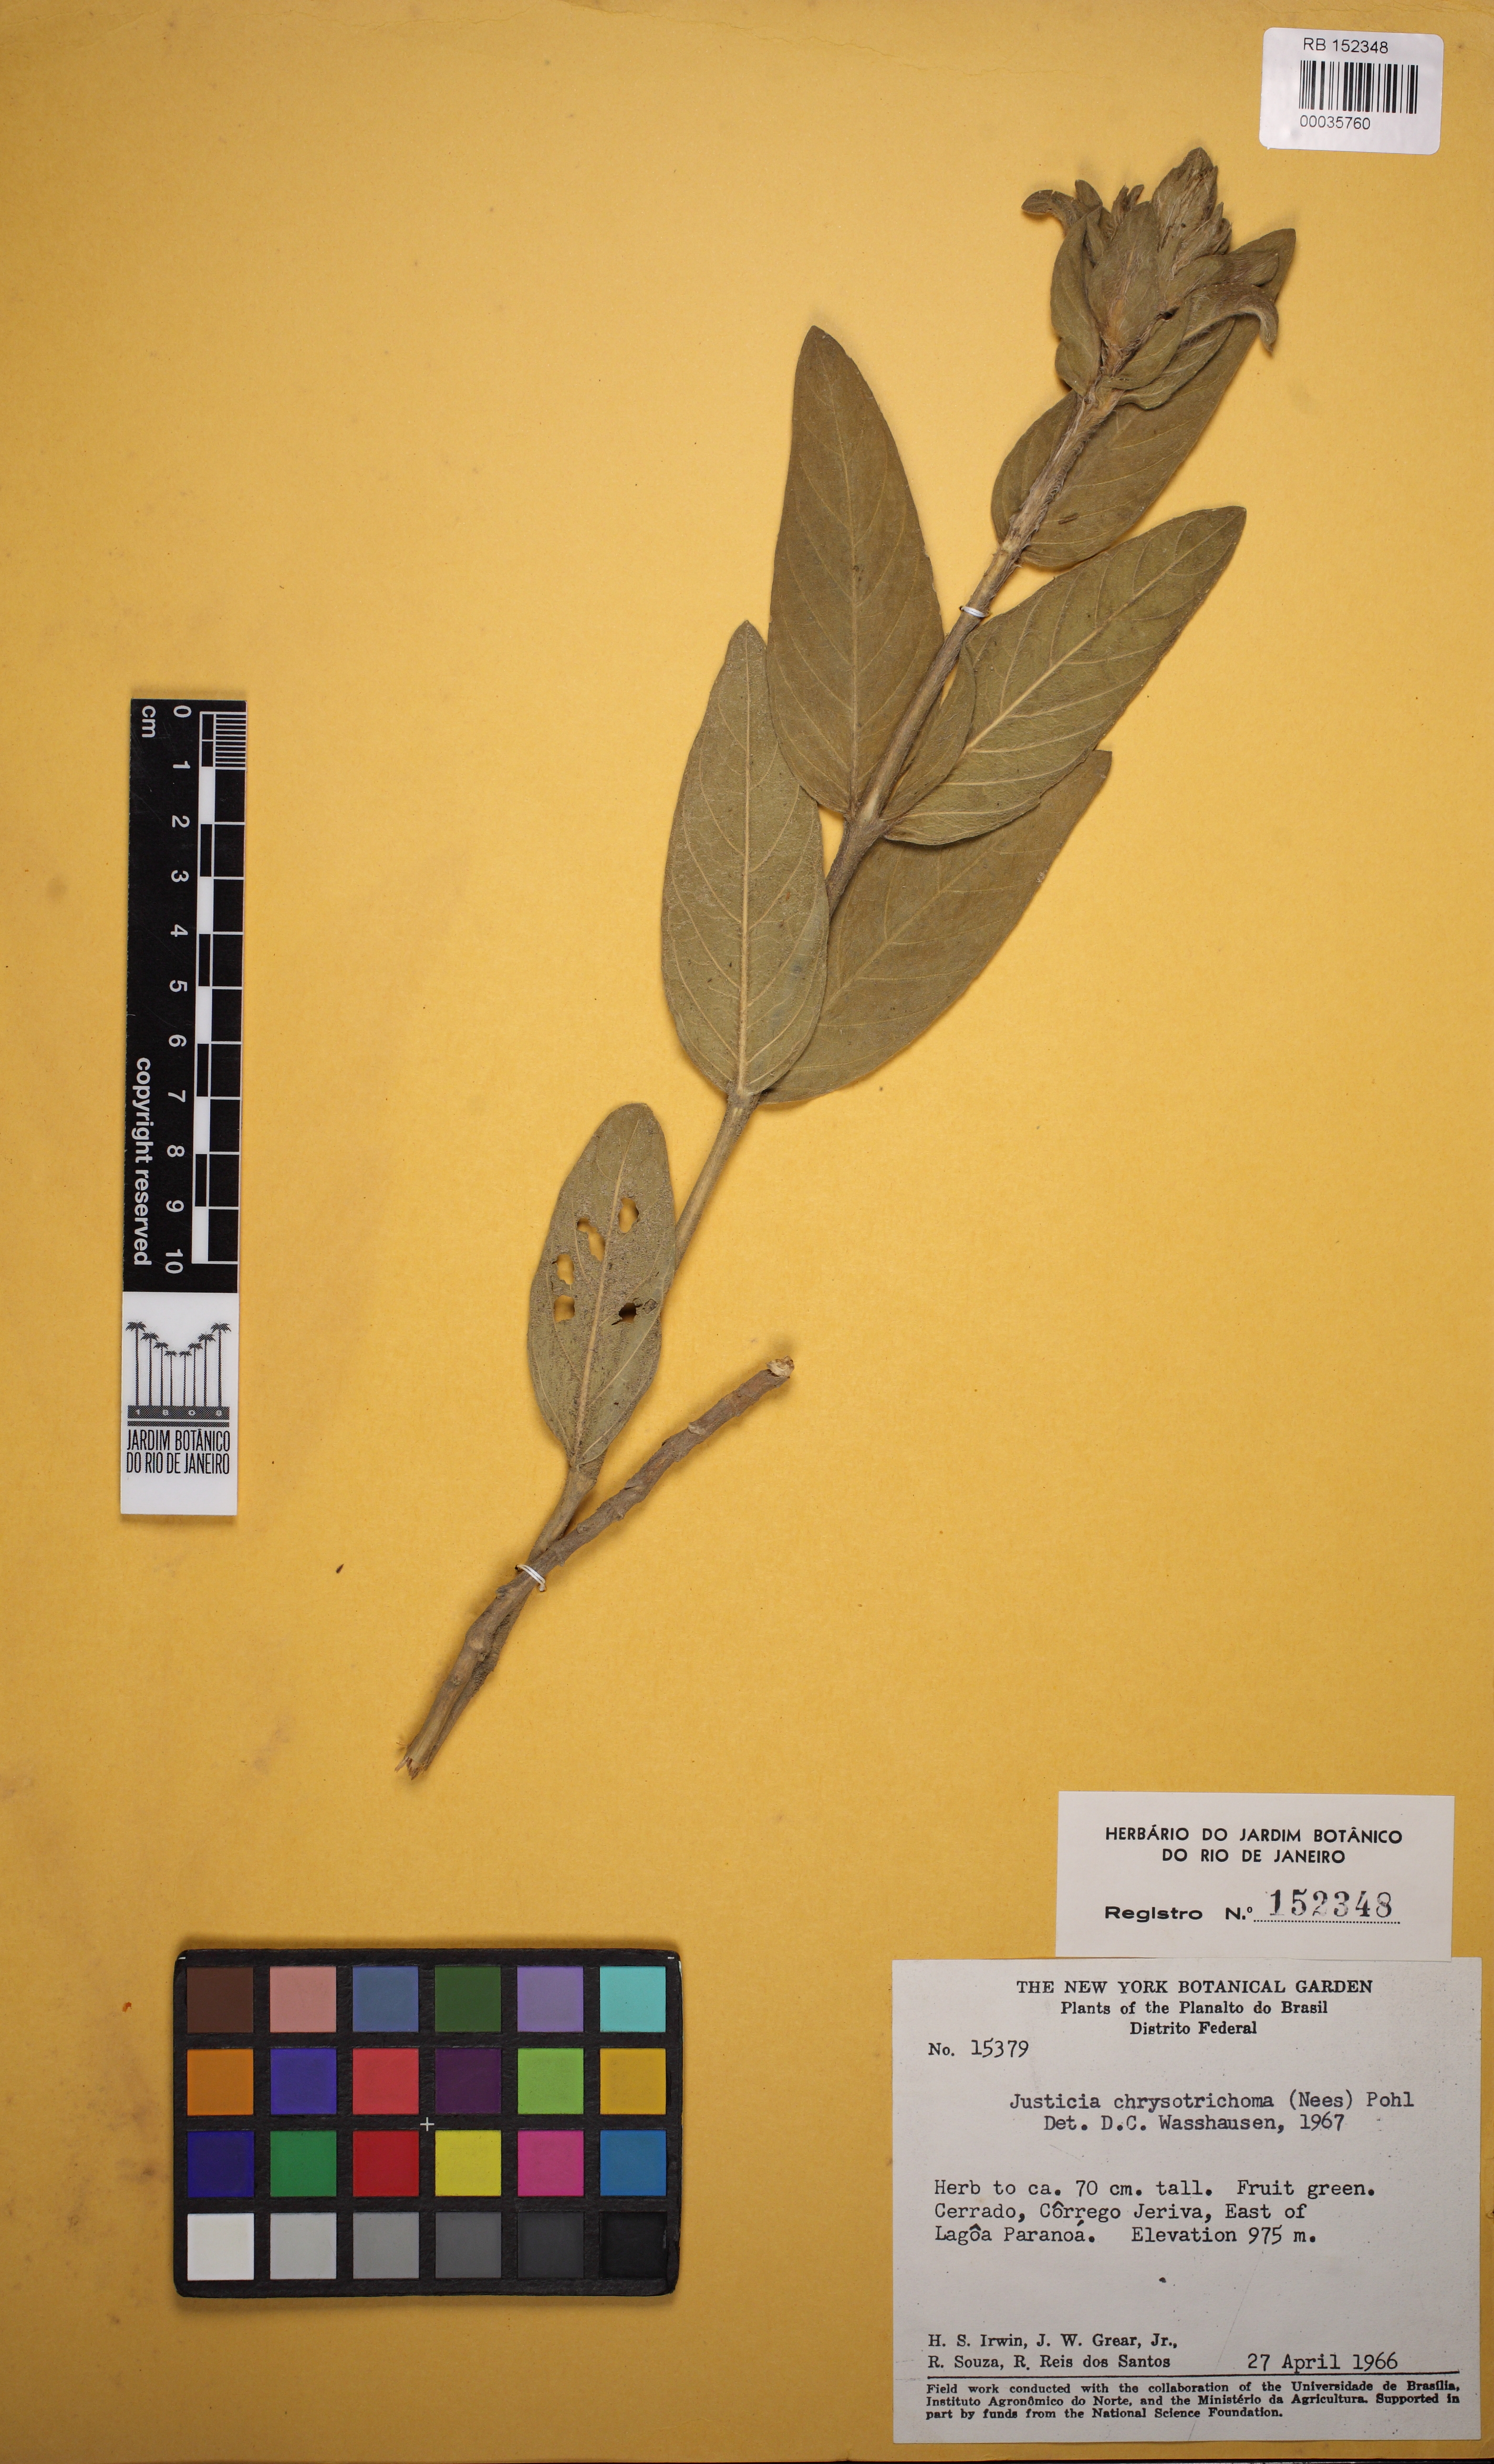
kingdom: Plantae
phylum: Tracheophyta
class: Magnoliopsida
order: Lamiales
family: Acanthaceae
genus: Justicia
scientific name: Justicia chrysotrichoma
